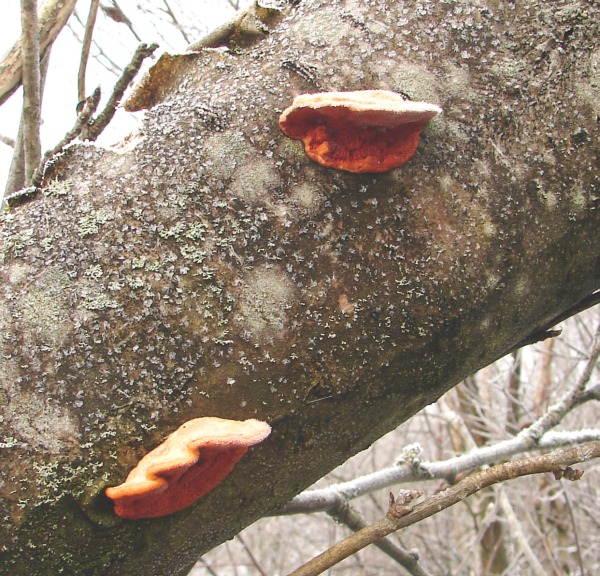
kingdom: Fungi
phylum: Basidiomycota
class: Agaricomycetes
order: Polyporales
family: Polyporaceae
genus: Pycnoporus
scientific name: Pycnoporus
